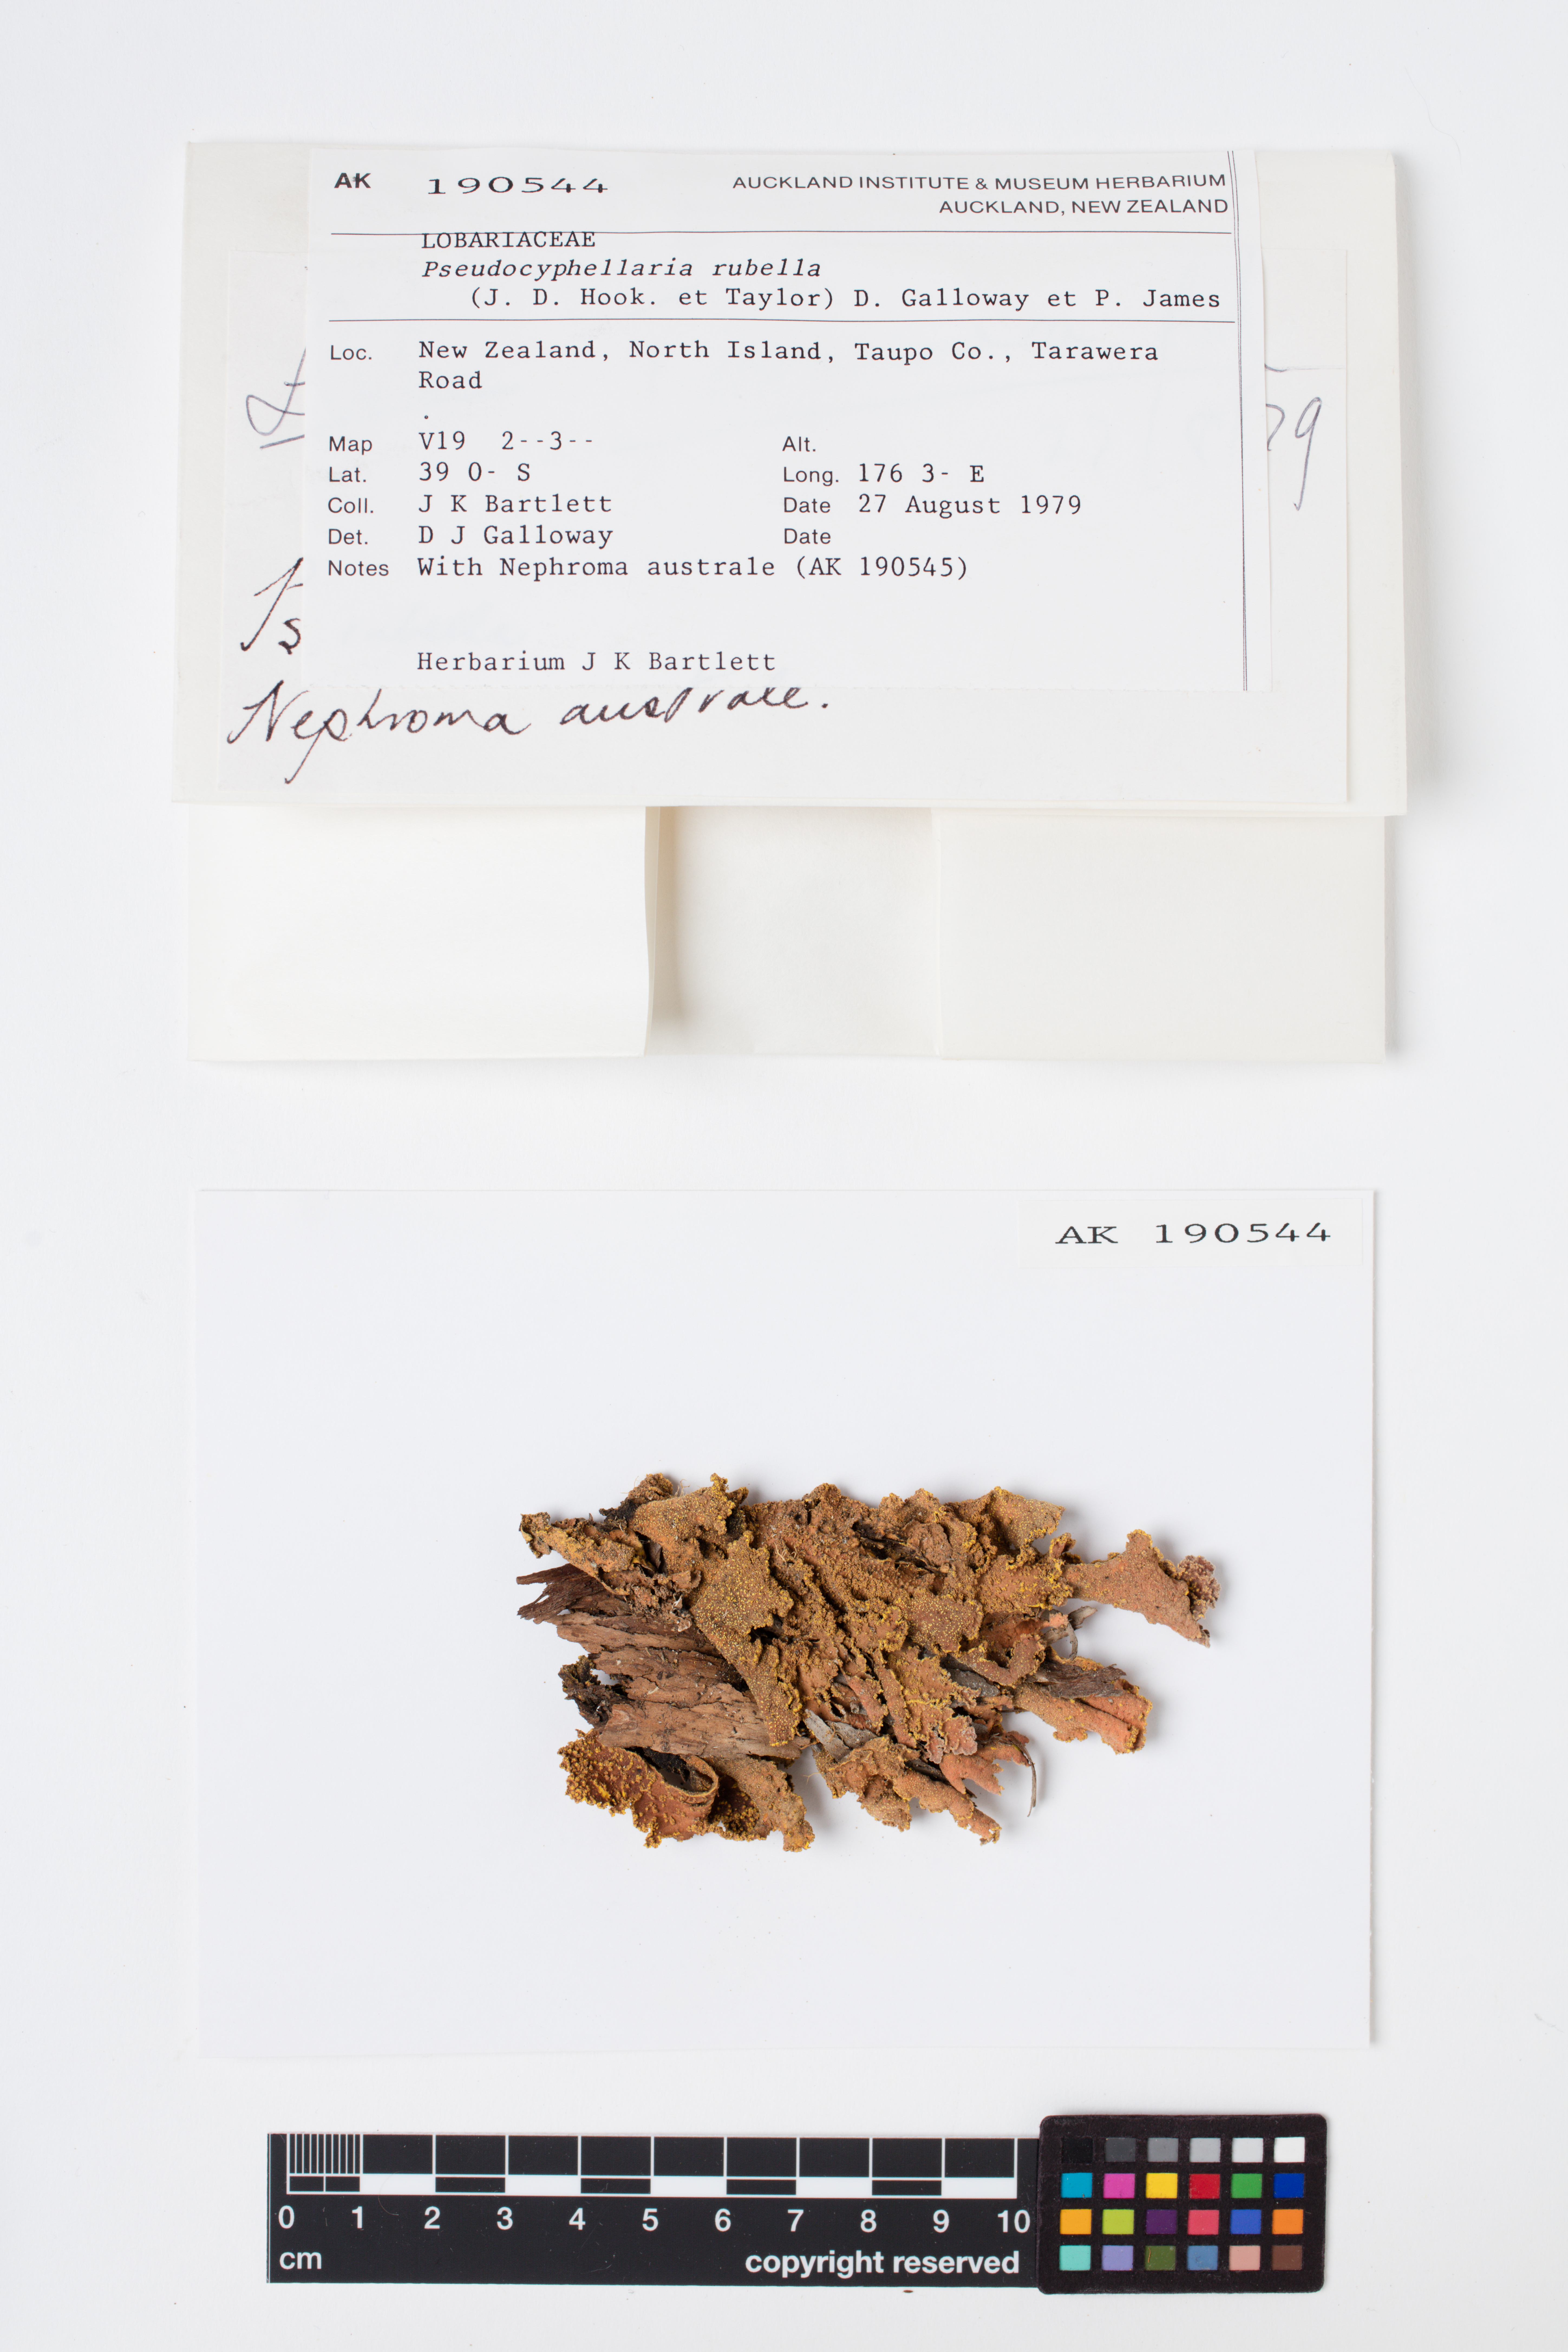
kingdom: Fungi
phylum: Ascomycota
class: Lecanoromycetes
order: Peltigerales
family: Lobariaceae
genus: Pseudocyphellaria
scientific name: Pseudocyphellaria rubella
